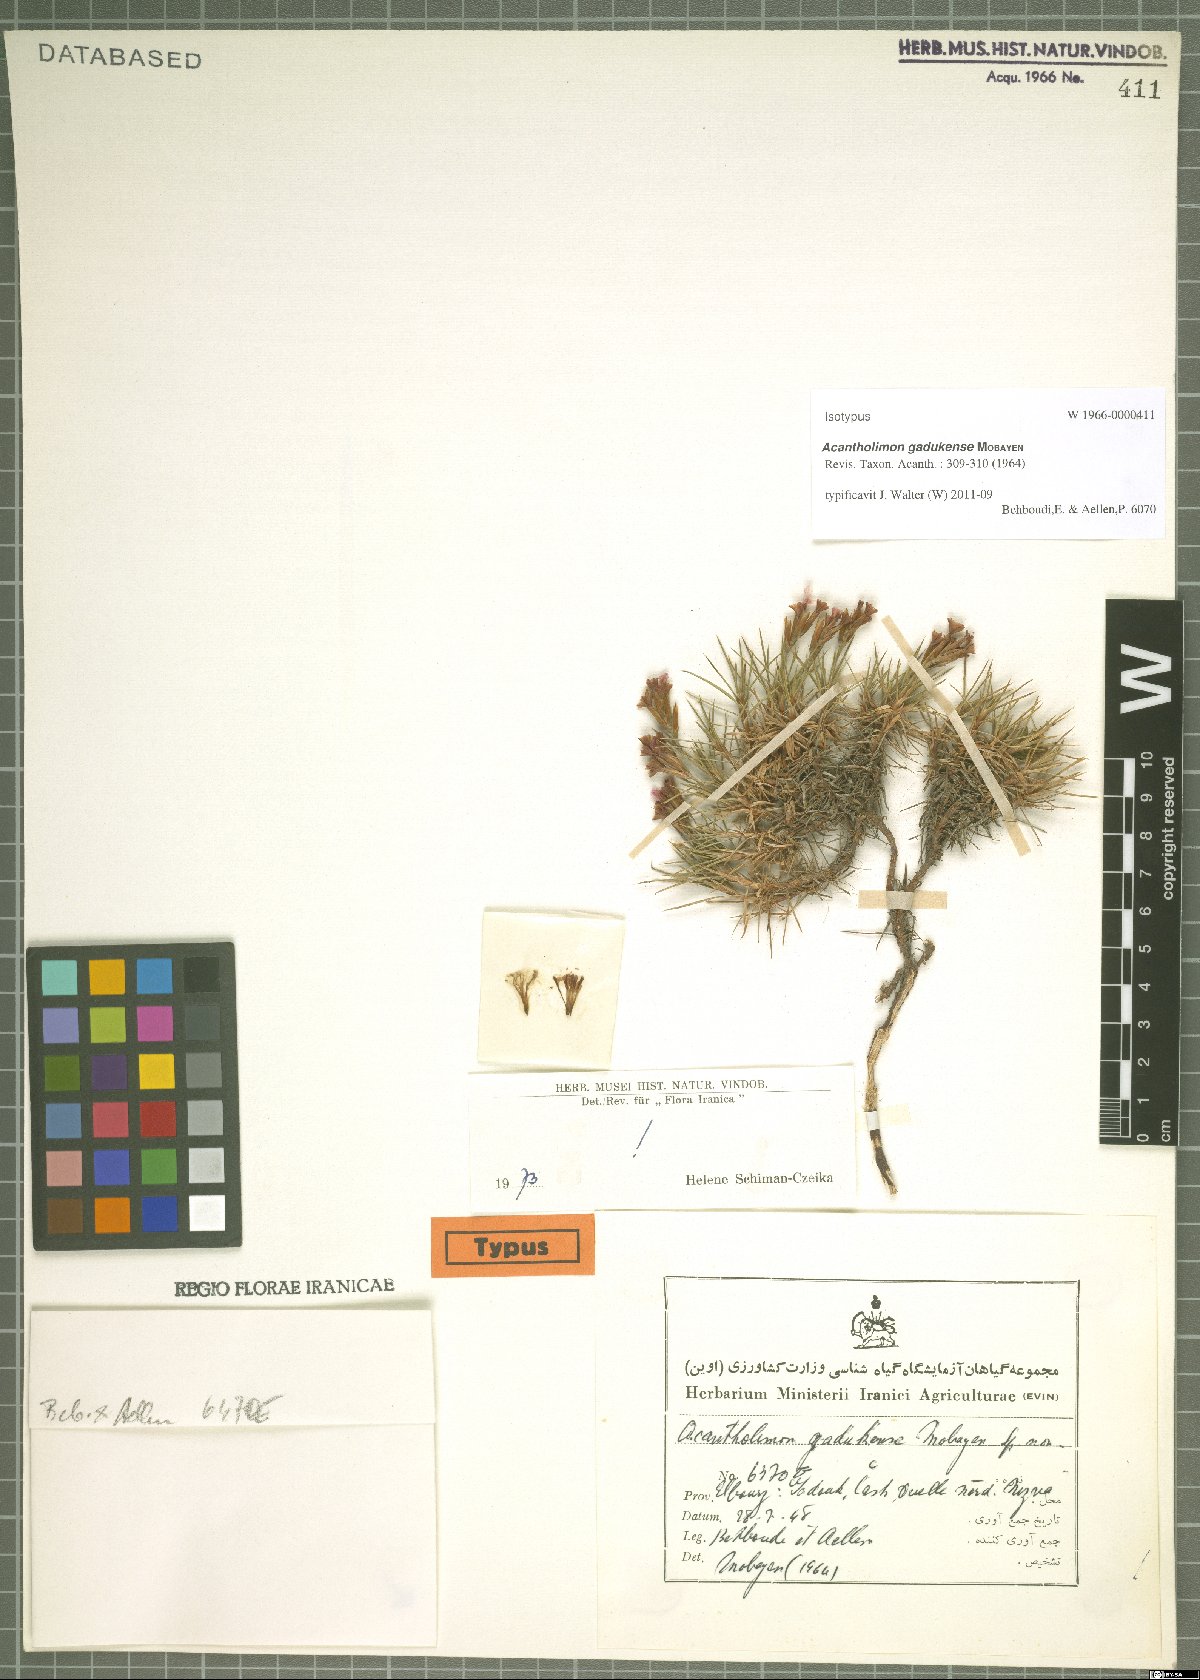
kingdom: Plantae
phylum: Tracheophyta
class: Magnoliopsida
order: Caryophyllales
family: Plumbaginaceae
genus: Acantholimon
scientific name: Acantholimon gadukense
